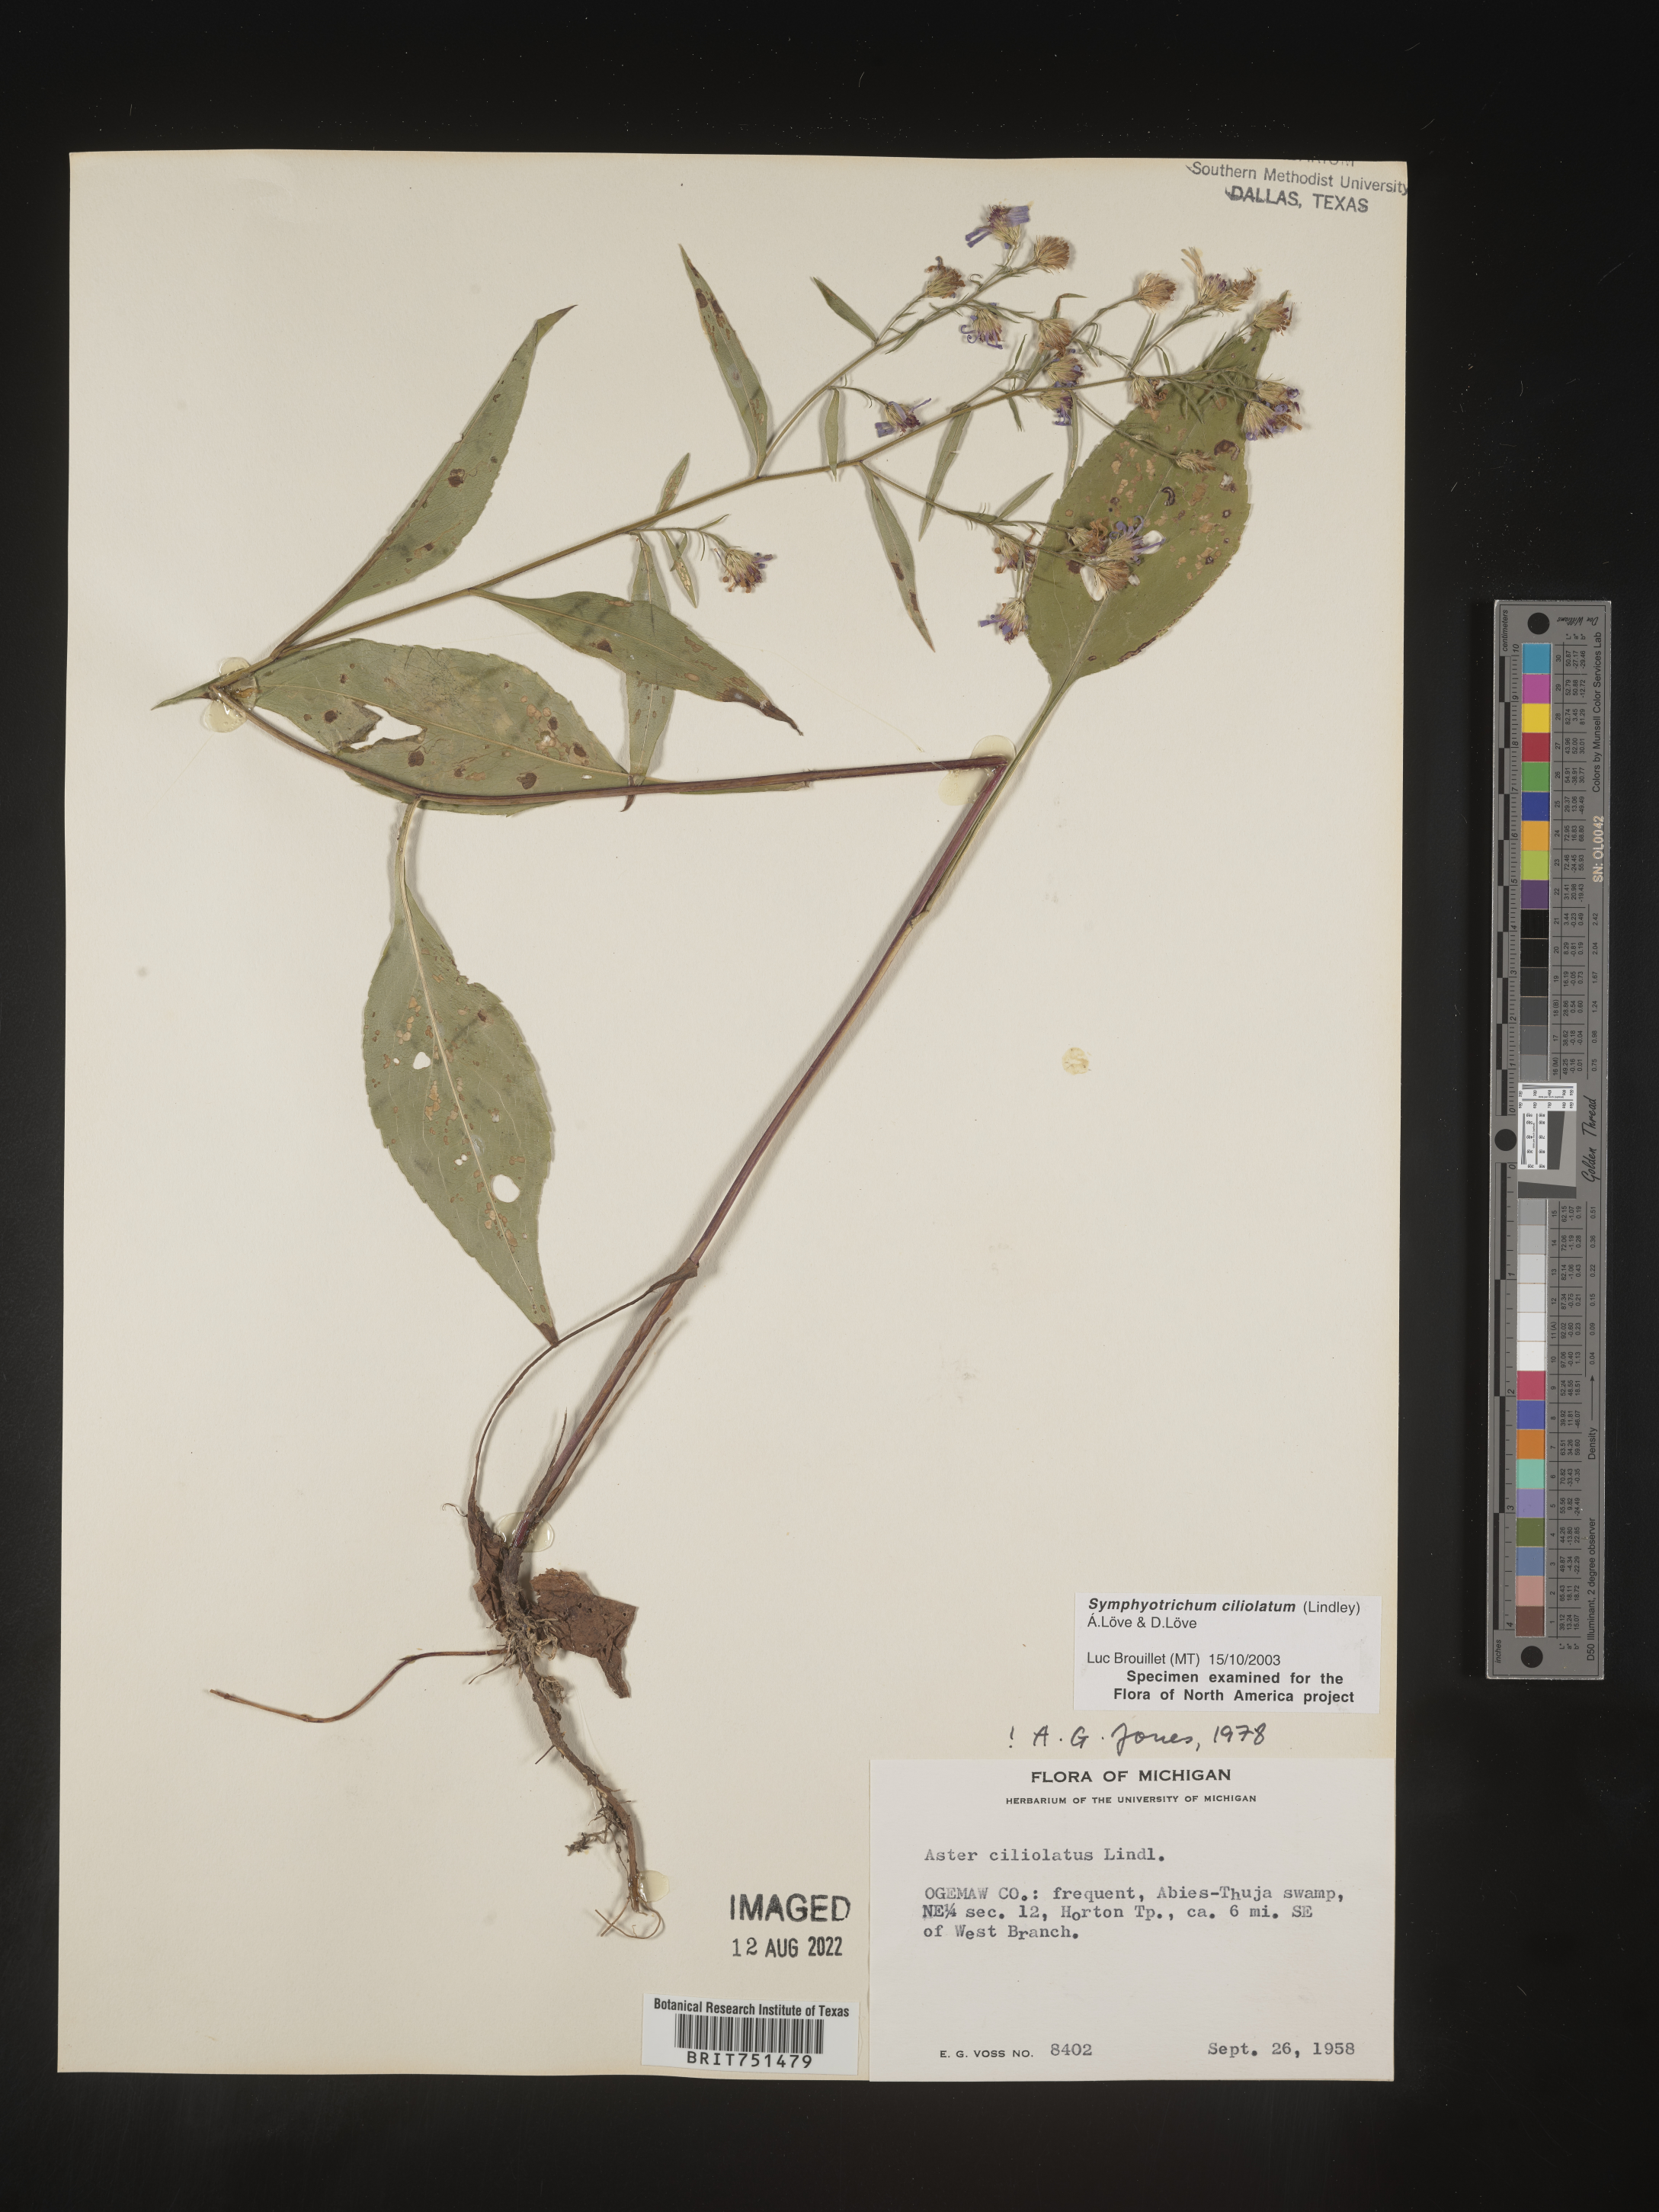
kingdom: Plantae
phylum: Tracheophyta
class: Magnoliopsida
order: Asterales
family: Asteraceae
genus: Symphyotrichum
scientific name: Symphyotrichum ciliolatum
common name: Fringed blue aster
